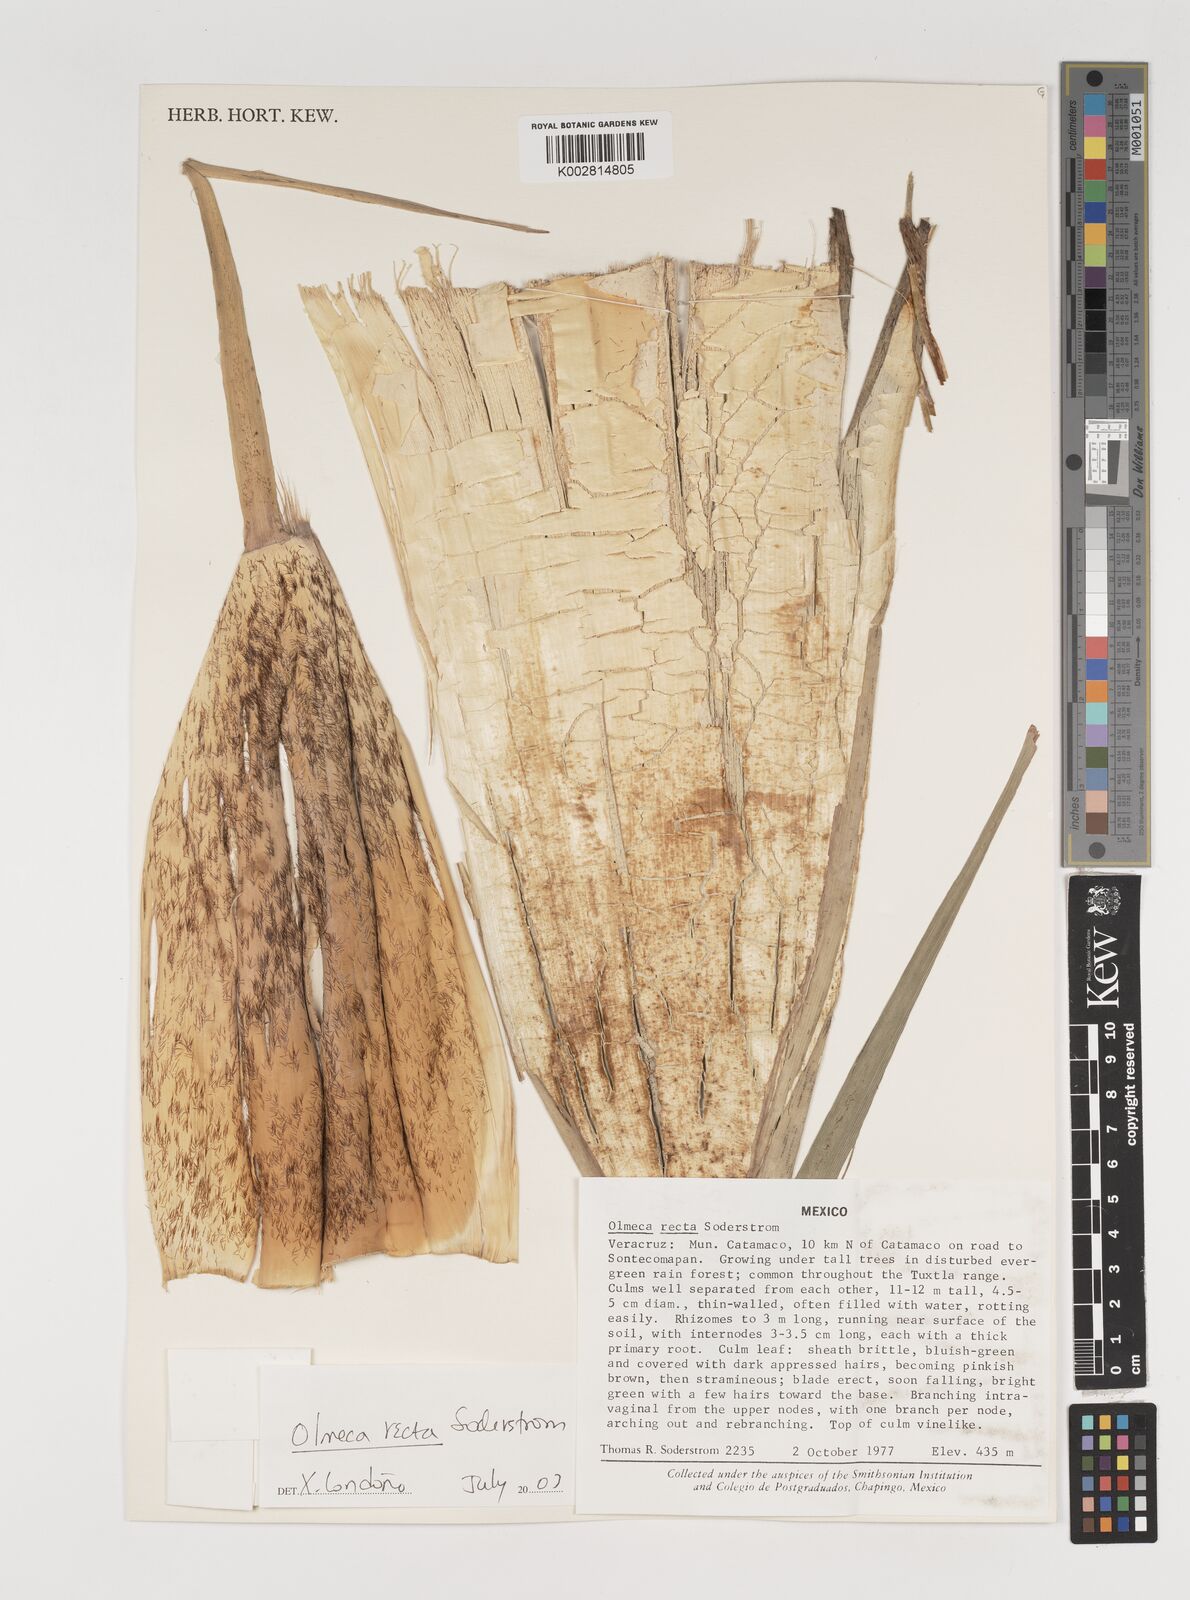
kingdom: Plantae
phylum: Tracheophyta
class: Liliopsida
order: Poales
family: Poaceae
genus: Olmeca
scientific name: Olmeca recta
